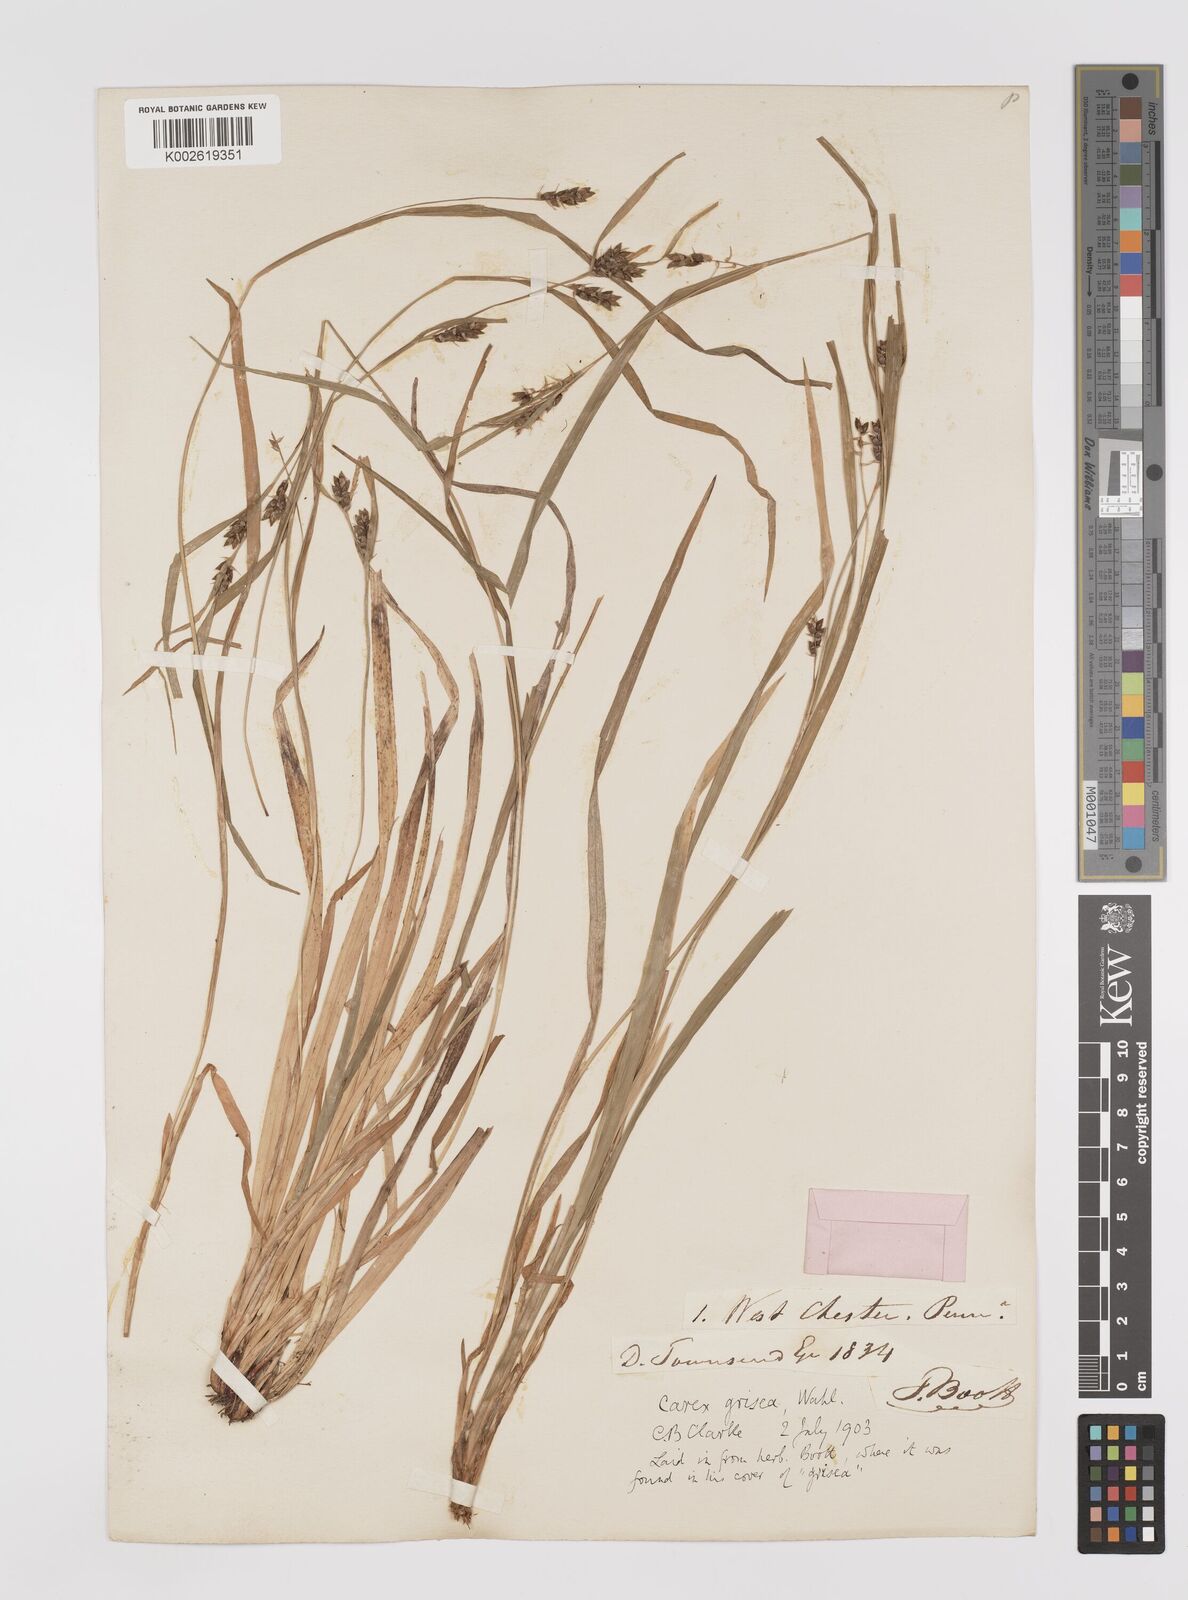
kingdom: Plantae
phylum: Tracheophyta
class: Liliopsida
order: Poales
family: Cyperaceae
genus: Carex
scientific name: Carex grisea
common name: Eastern narrow-leaved sedge
